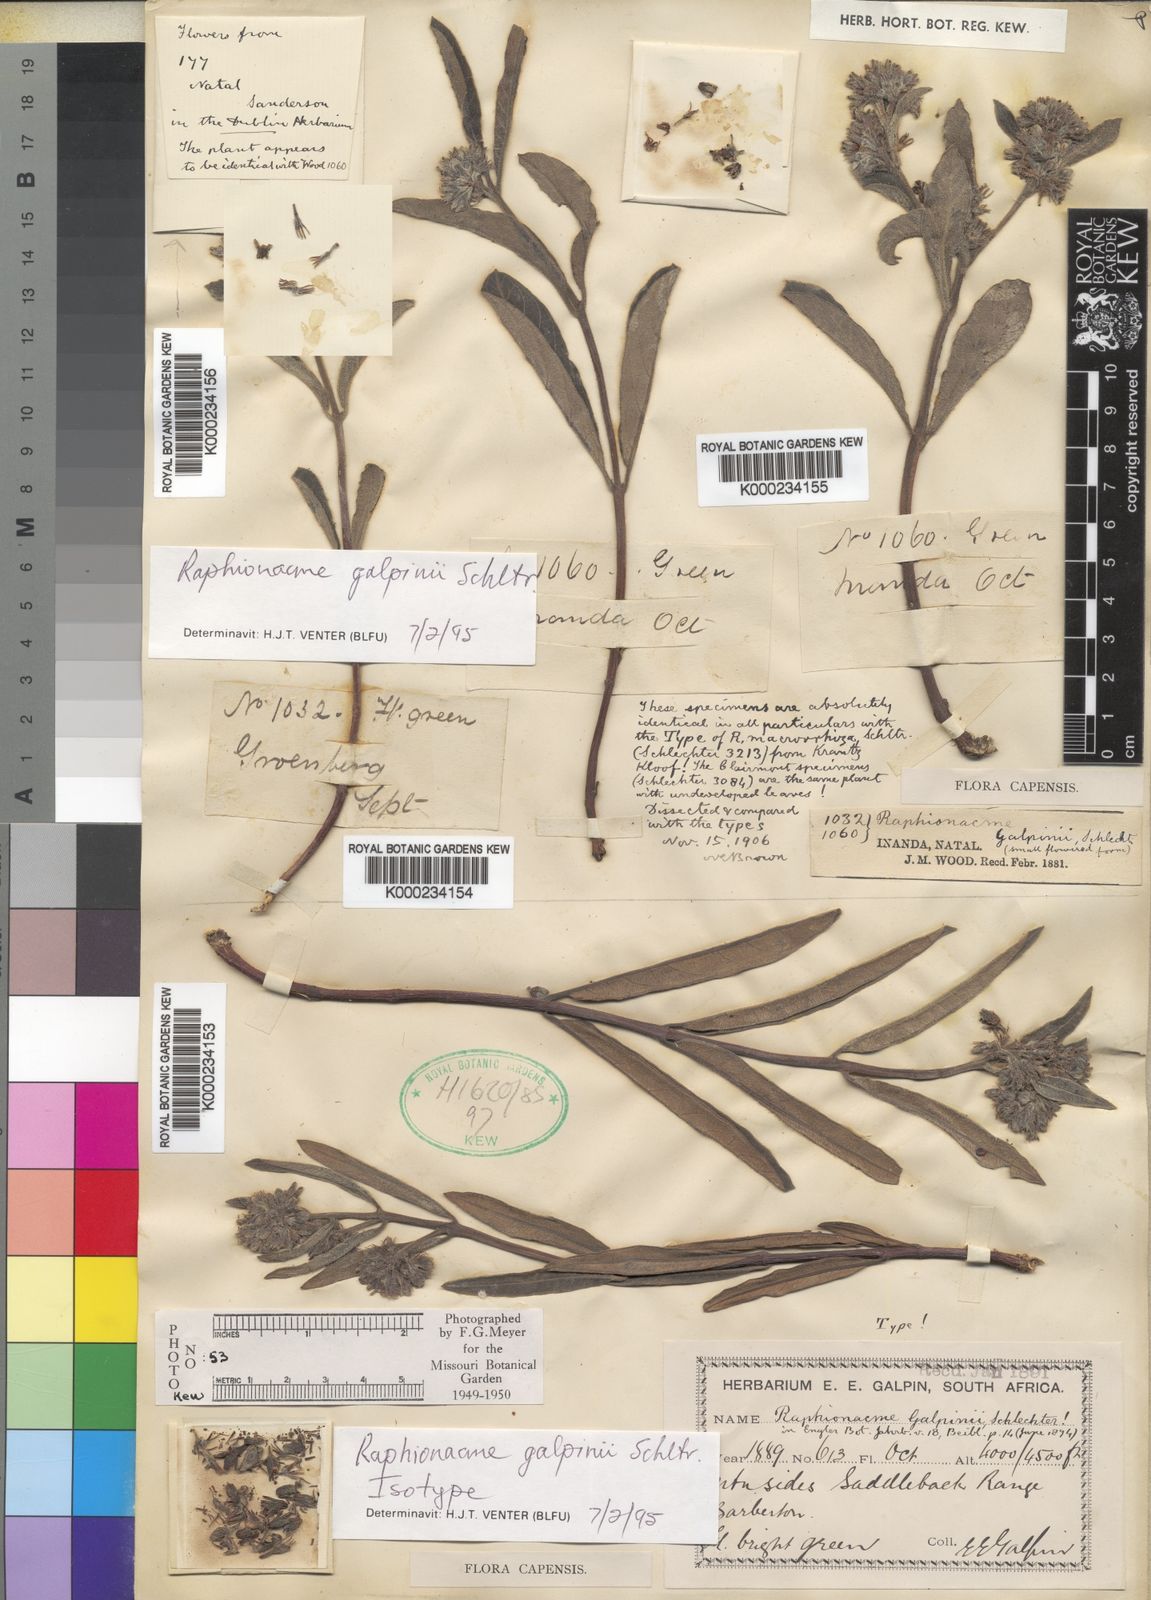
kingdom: Plantae
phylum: Tracheophyta
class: Magnoliopsida
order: Gentianales
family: Apocynaceae
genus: Raphionacme
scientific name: Raphionacme galpinii
